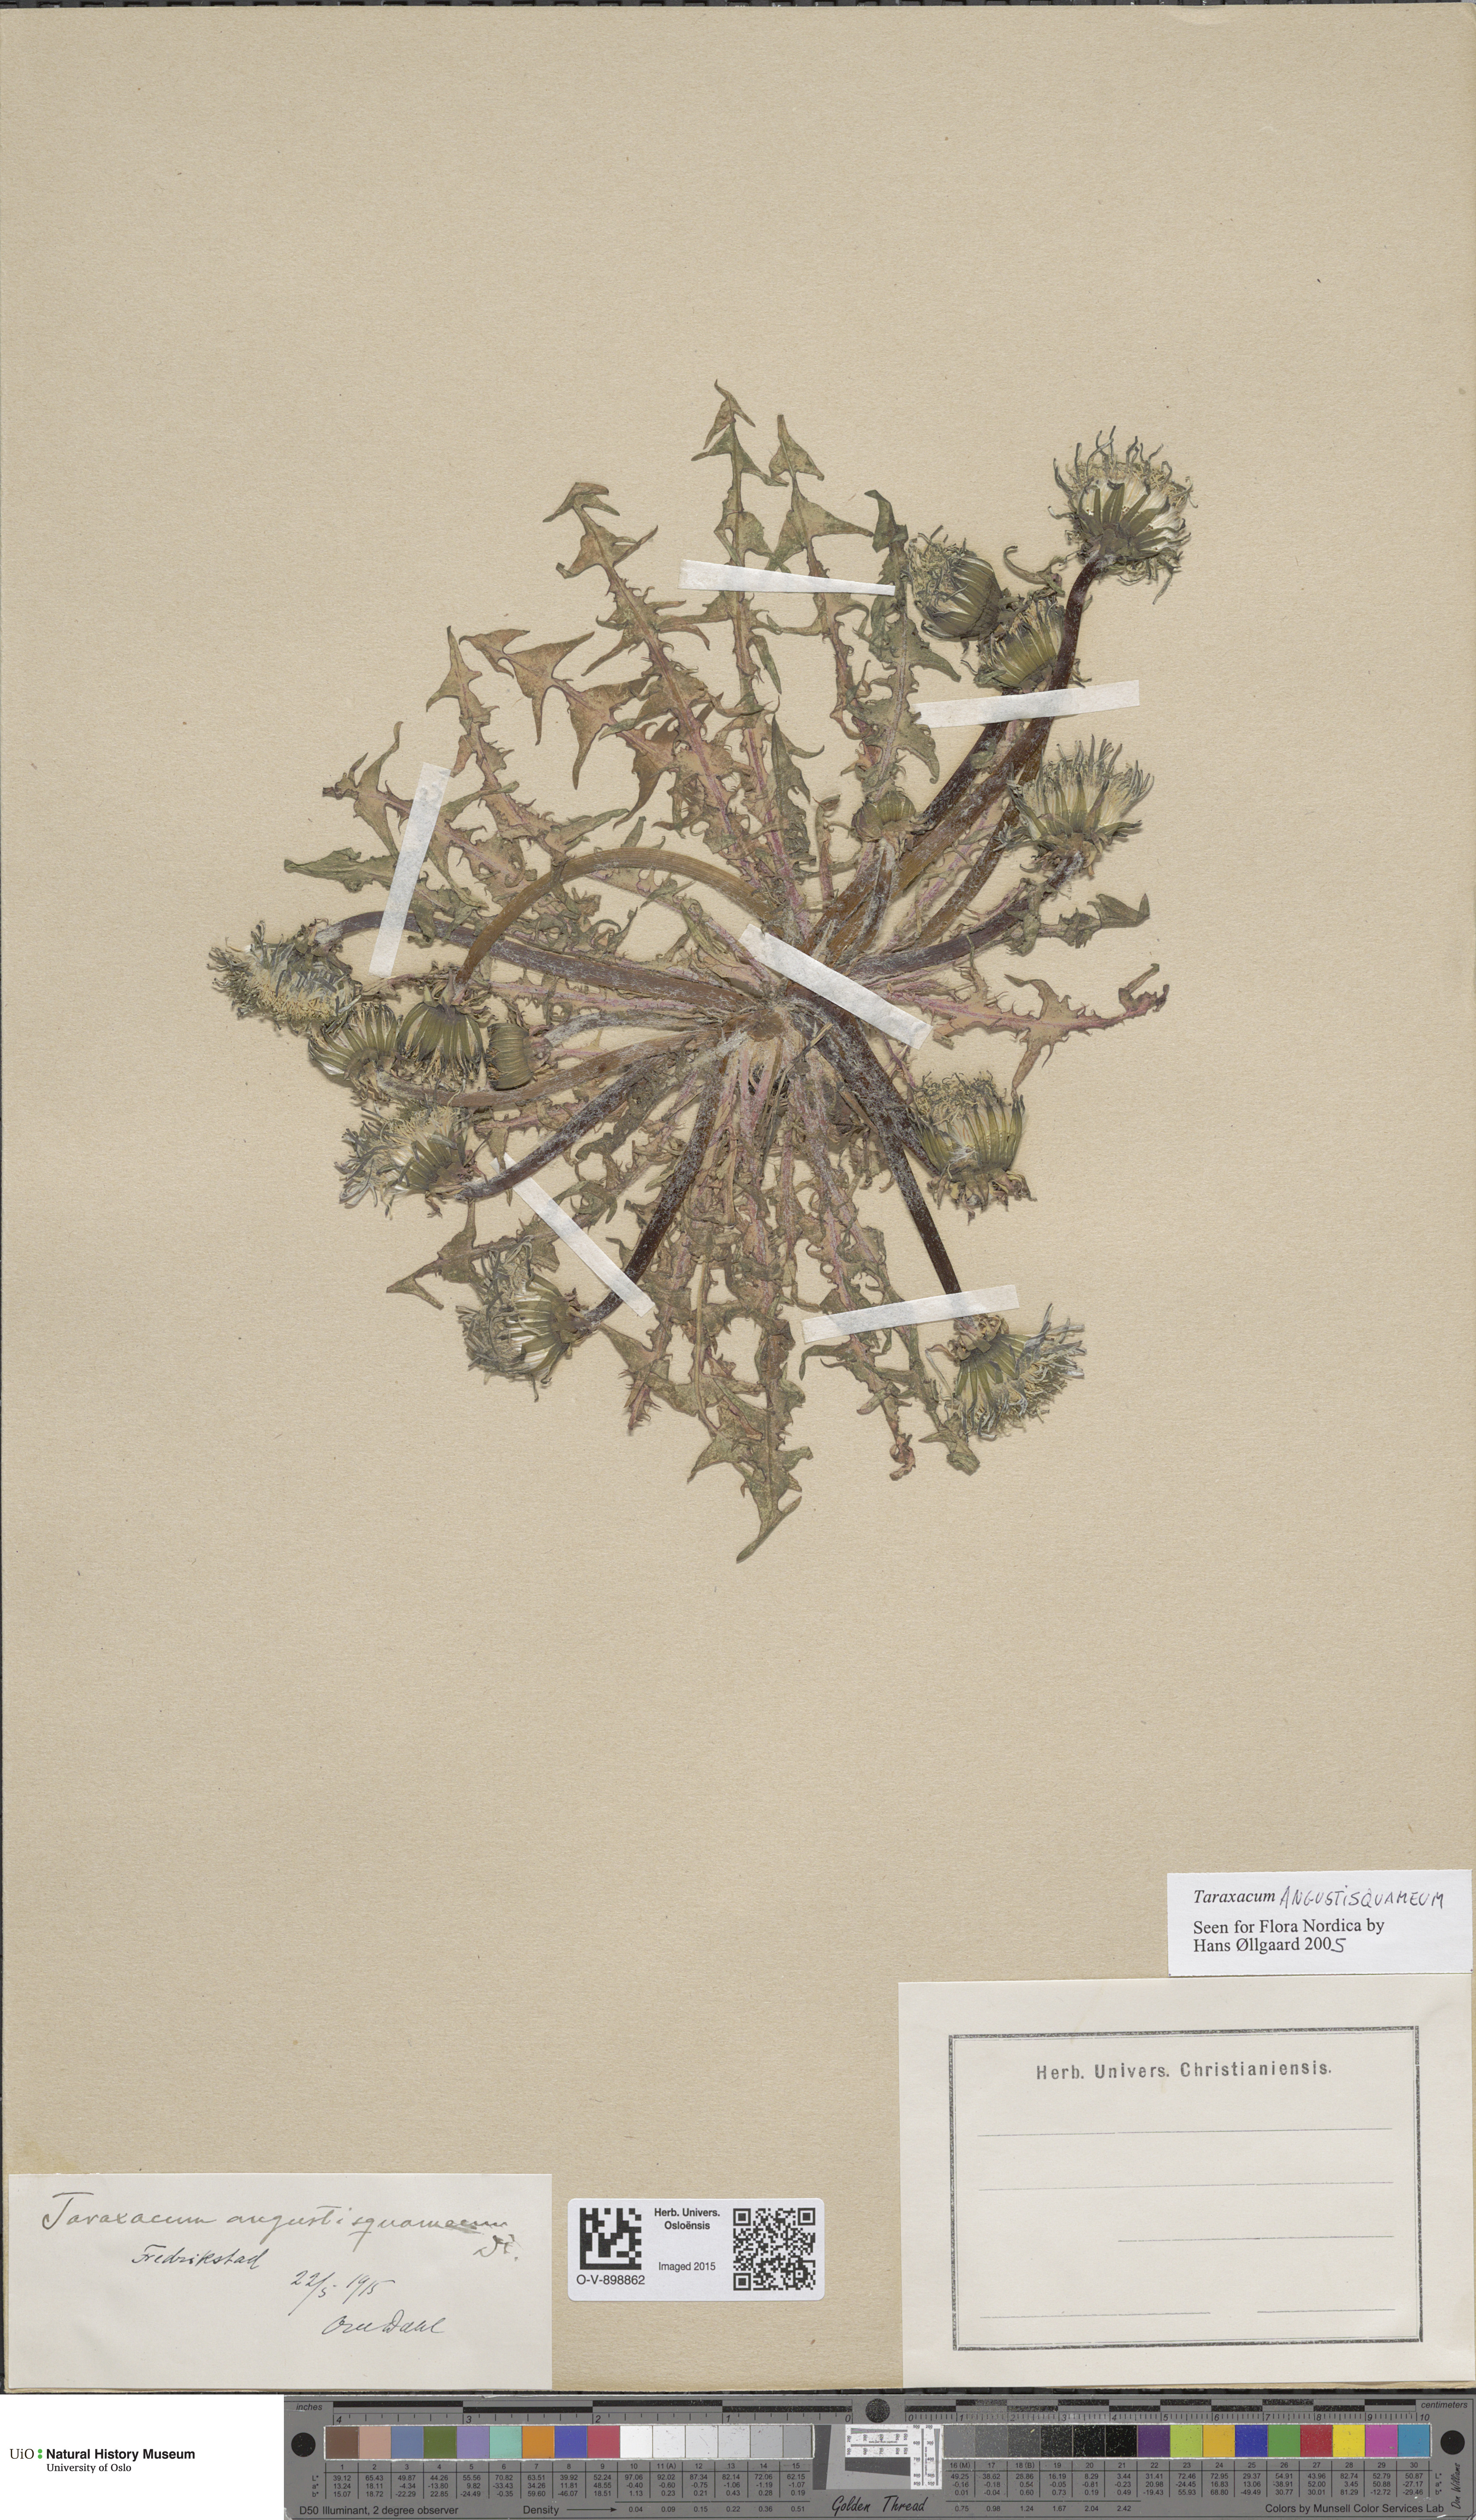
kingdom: Plantae
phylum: Tracheophyta
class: Magnoliopsida
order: Asterales
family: Asteraceae
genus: Taraxacum
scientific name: Taraxacum angustisquameum
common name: Multilobed dandelion
